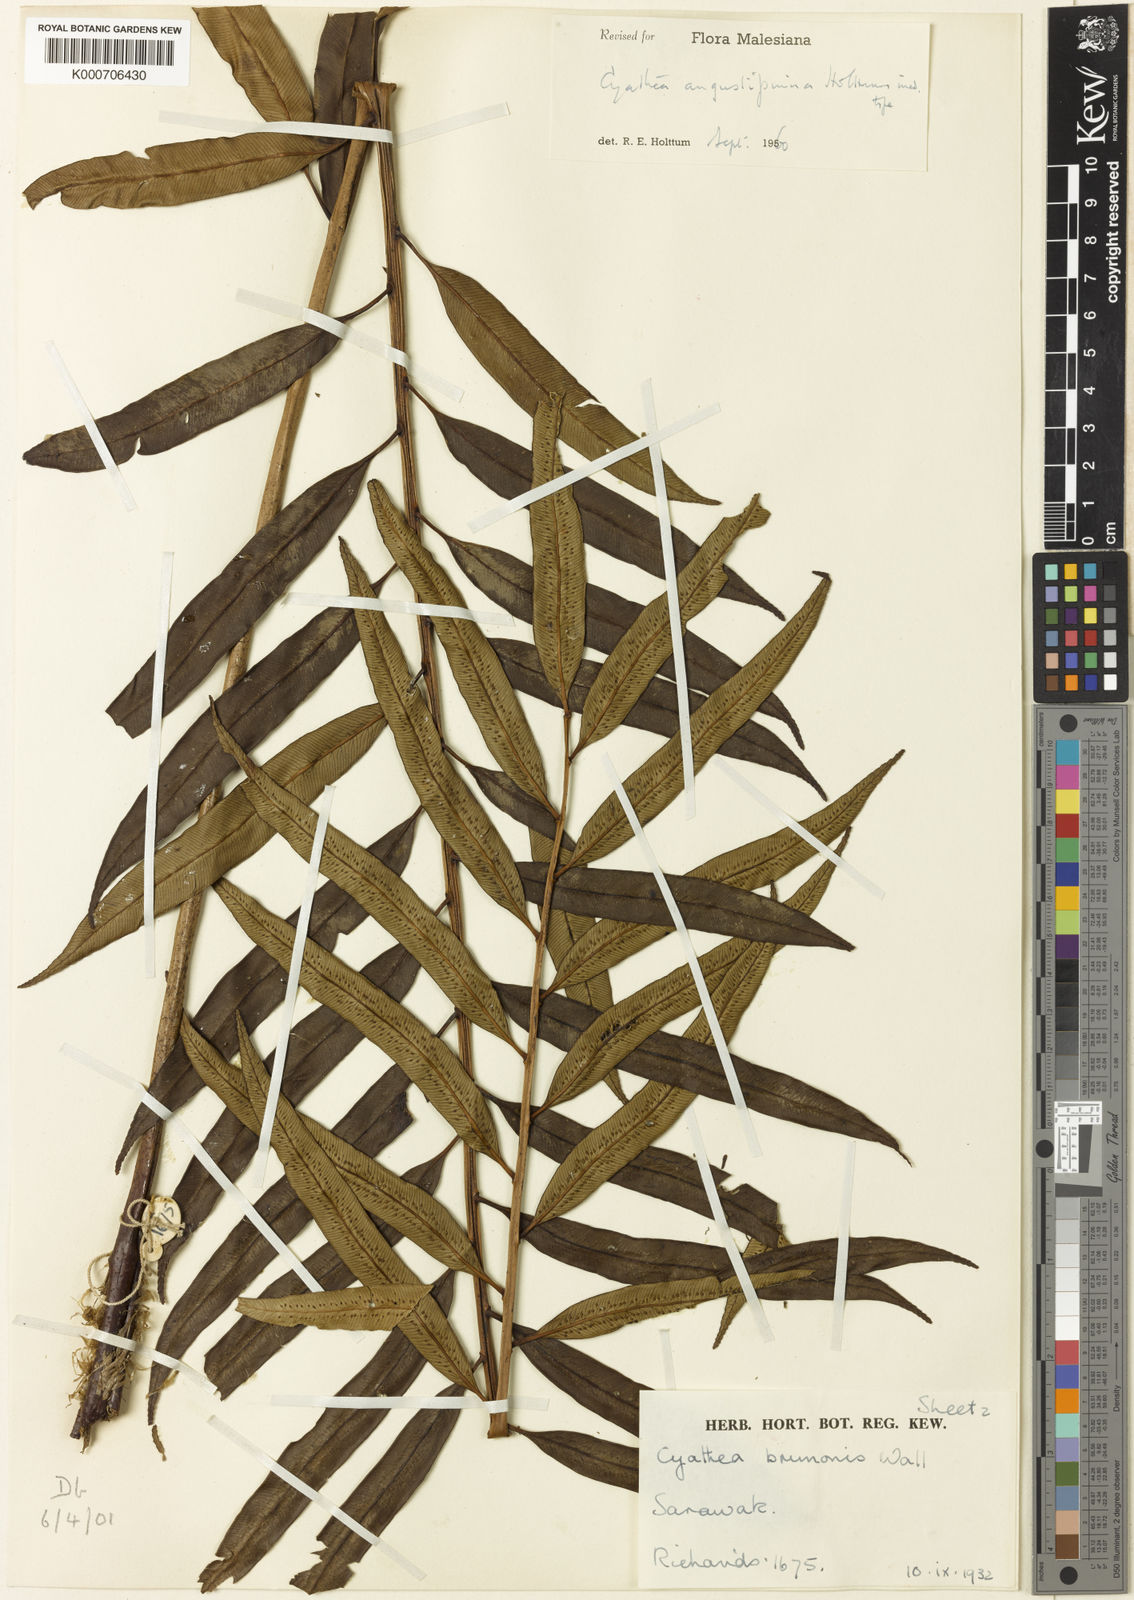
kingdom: Plantae
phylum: Tracheophyta
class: Polypodiopsida
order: Cyatheales
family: Cyatheaceae
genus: Sphaeropteris
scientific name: Sphaeropteris angustipinna
